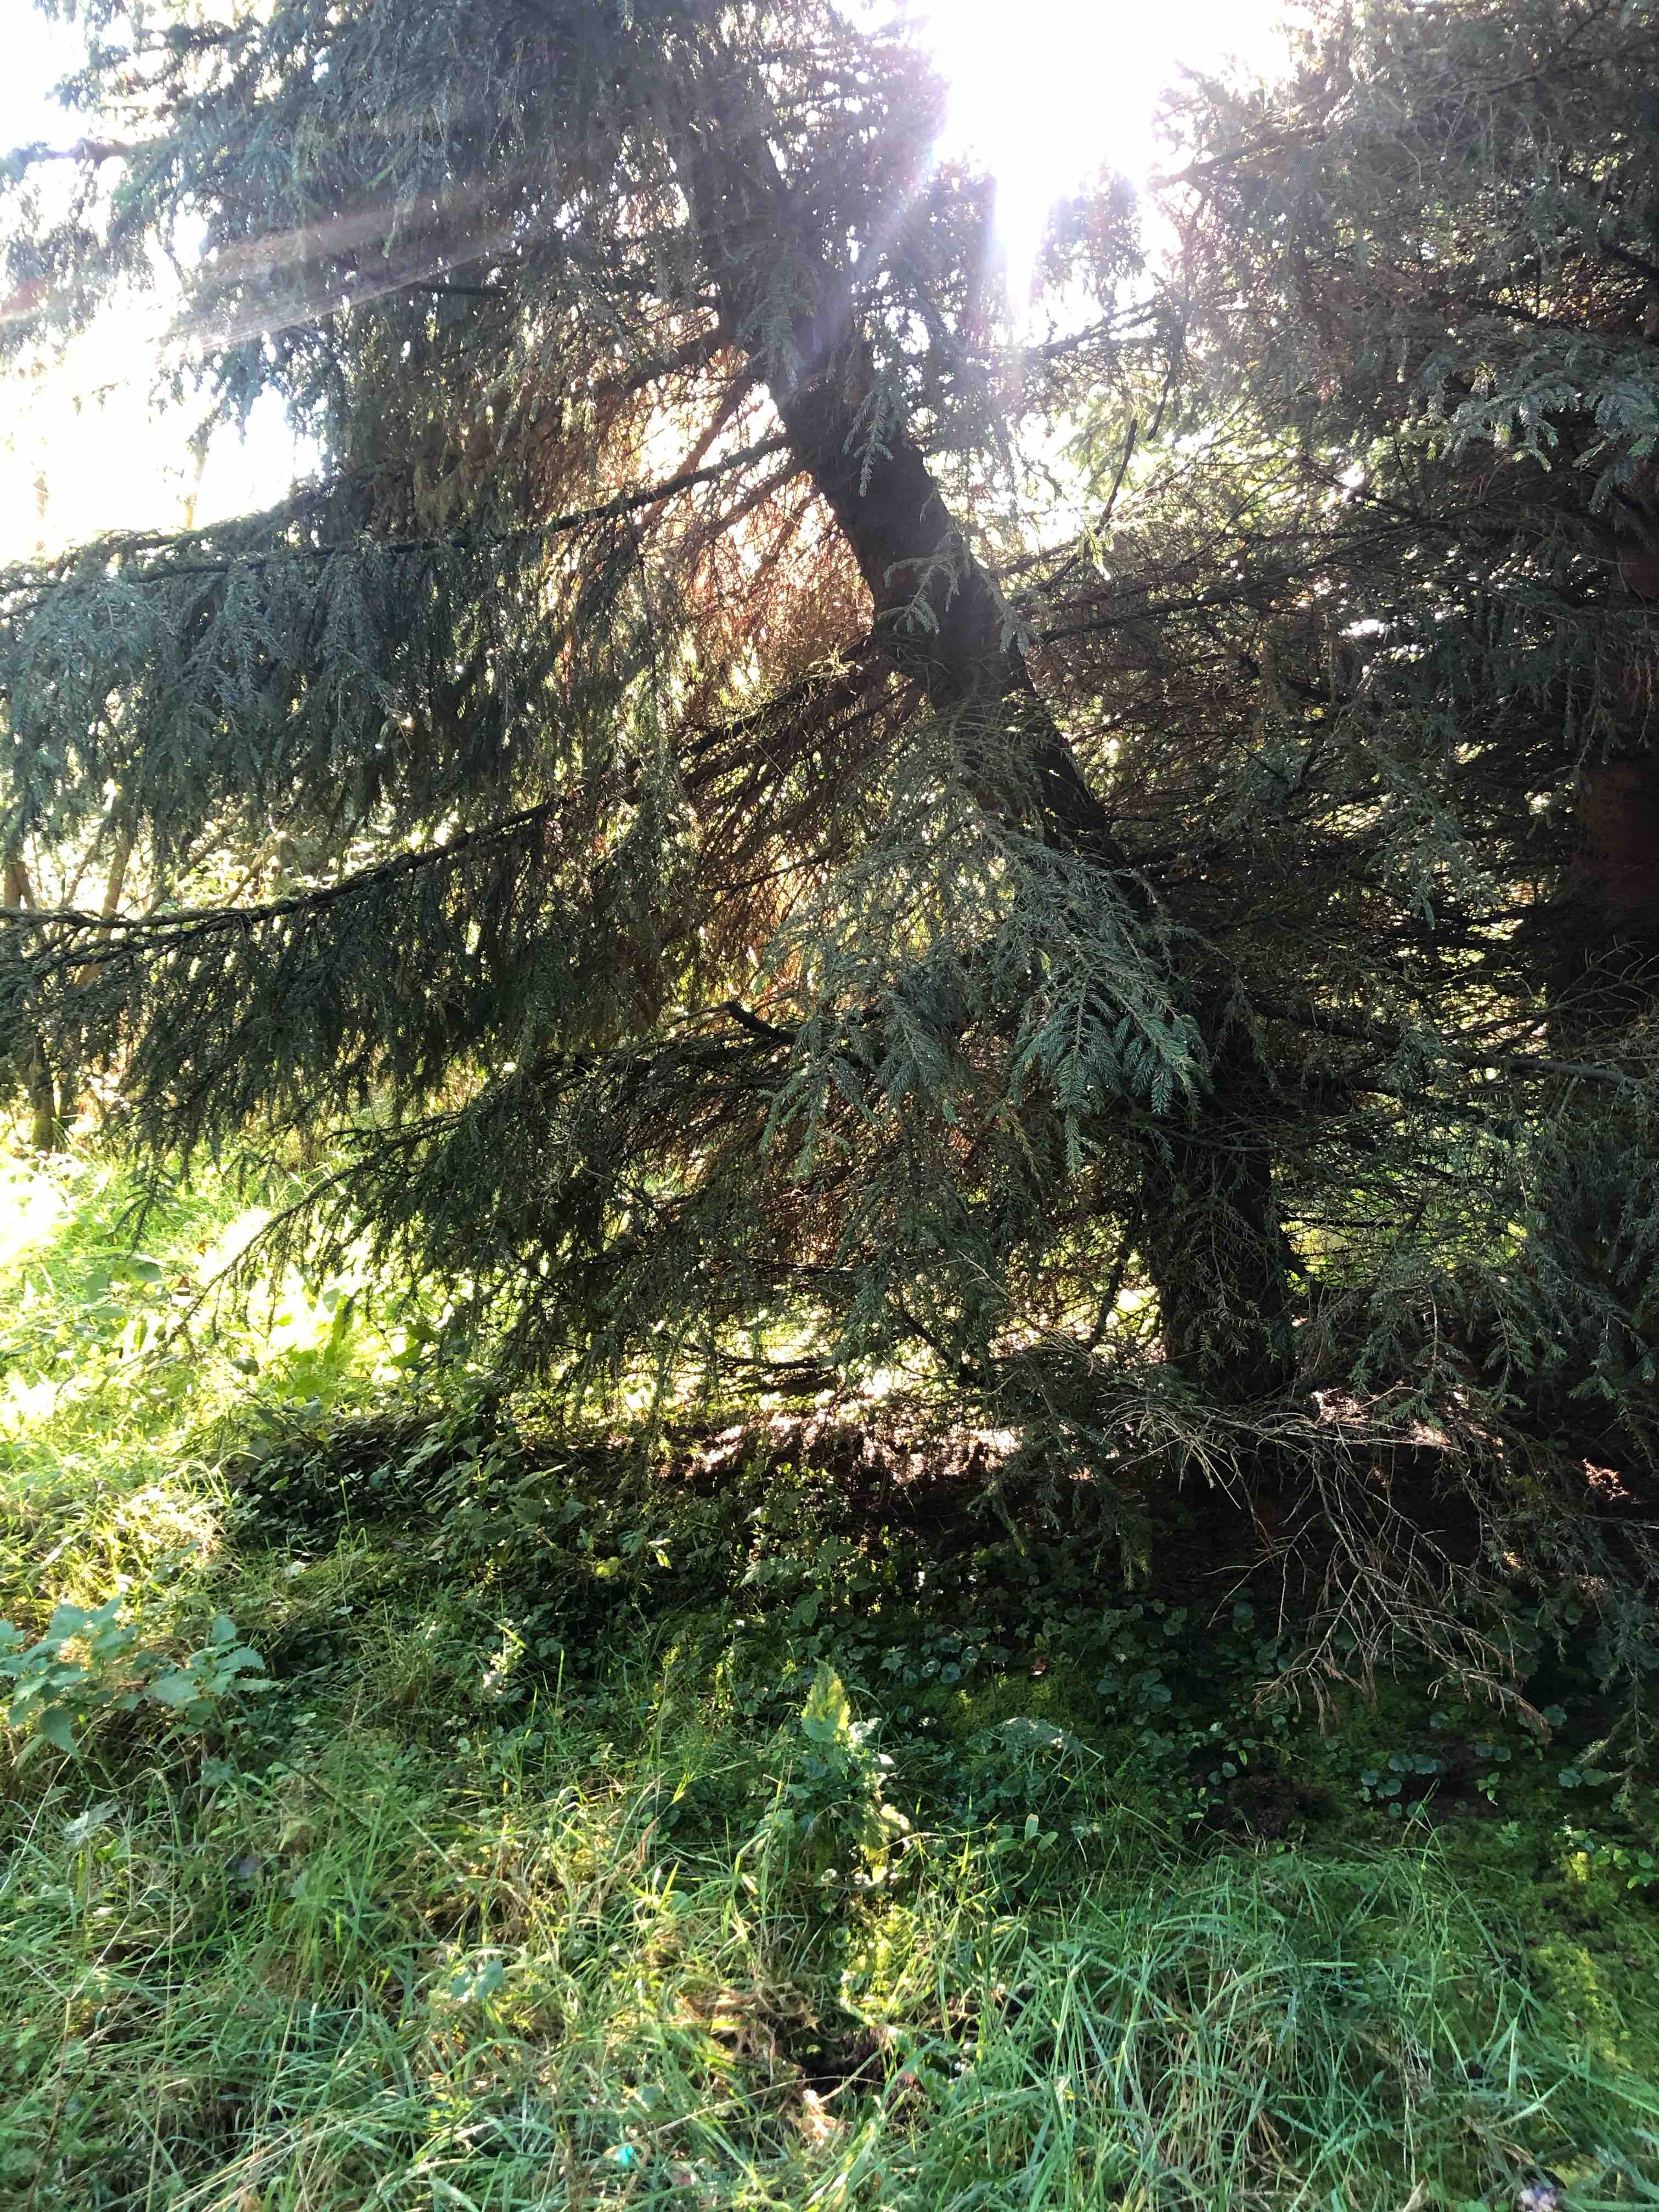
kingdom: Fungi
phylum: Basidiomycota
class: Agaricomycetes
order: Thelephorales
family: Thelephoraceae
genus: Thelephora
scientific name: Thelephora palmata
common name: grenet frynsesvamp
